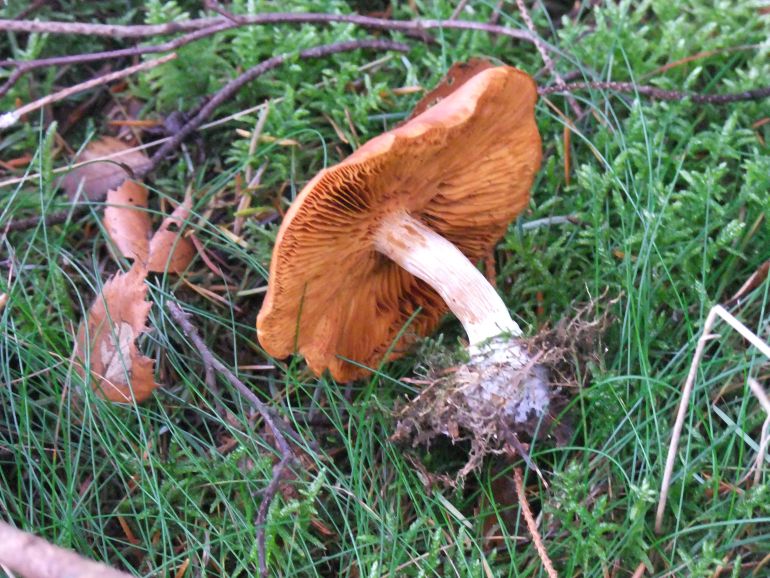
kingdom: Fungi
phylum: Basidiomycota
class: Agaricomycetes
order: Agaricales
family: Hymenogastraceae
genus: Gymnopilus
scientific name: Gymnopilus penetrans
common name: plettet flammehat
